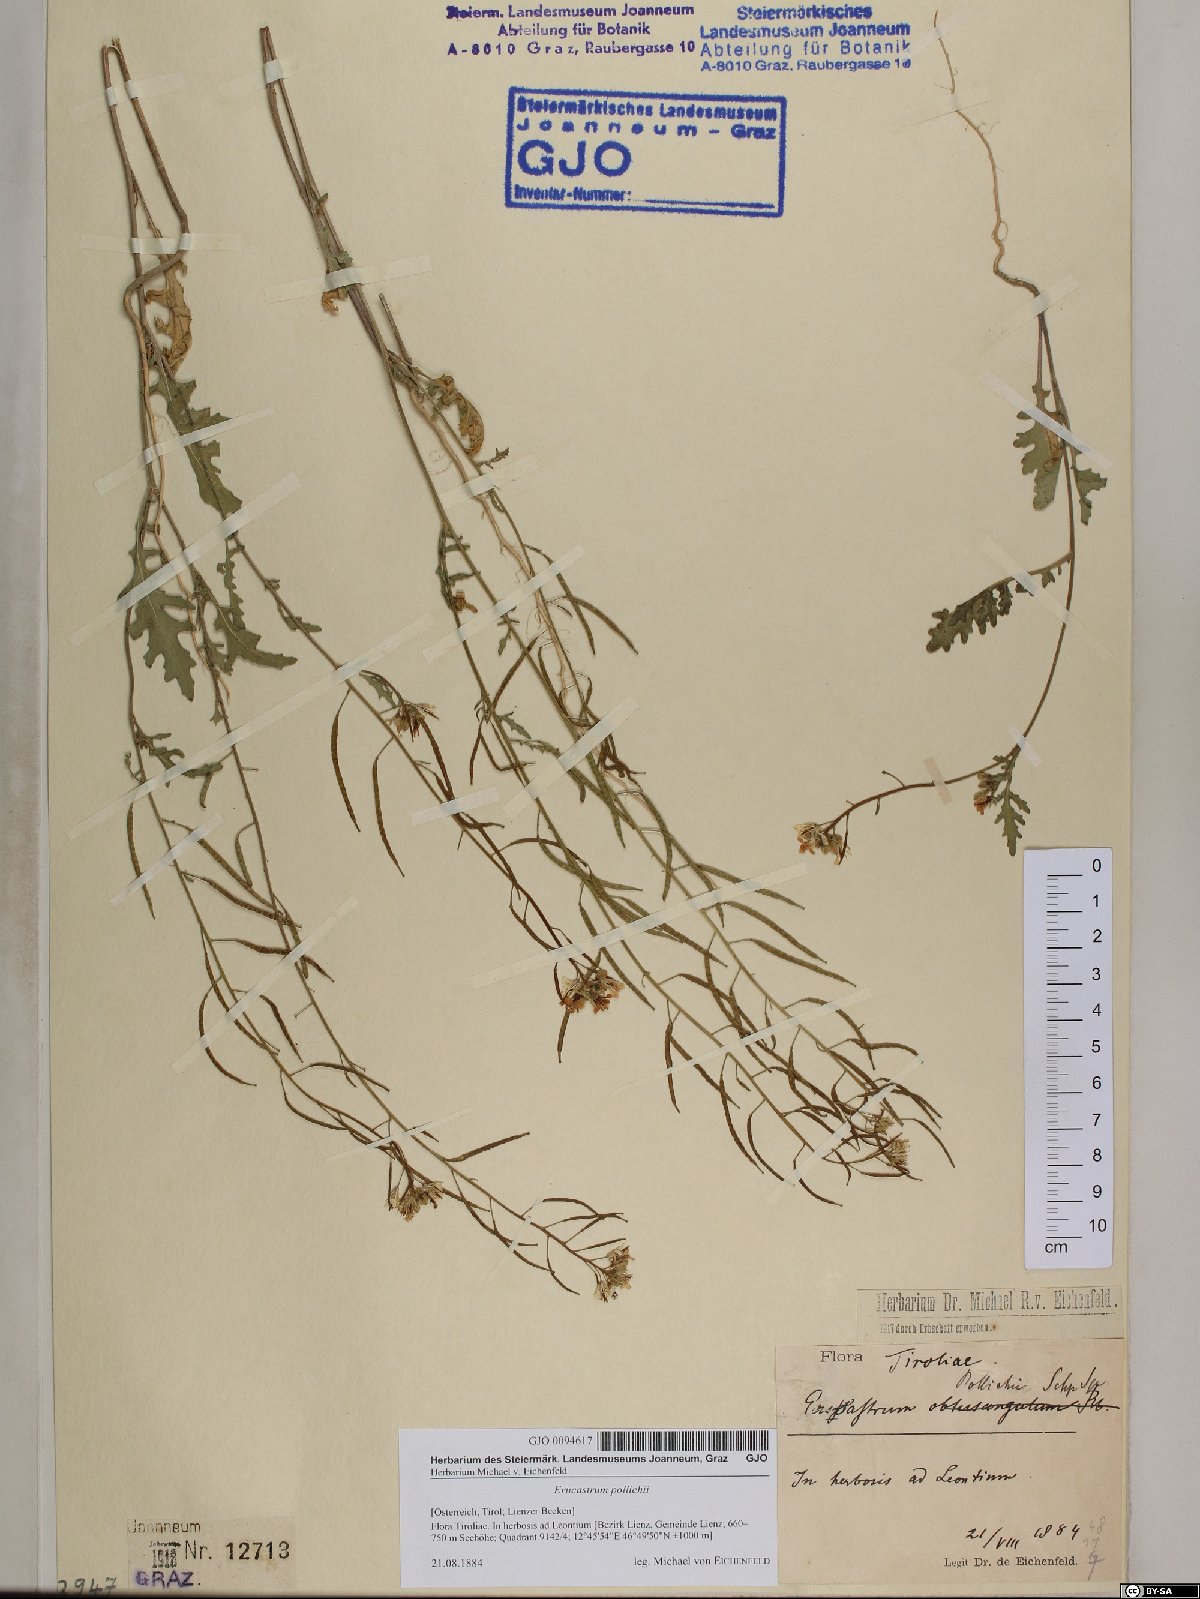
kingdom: Plantae
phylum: Tracheophyta
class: Magnoliopsida
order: Brassicales
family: Brassicaceae
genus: Erucastrum
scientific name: Erucastrum gallicum
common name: Hairy rocket
